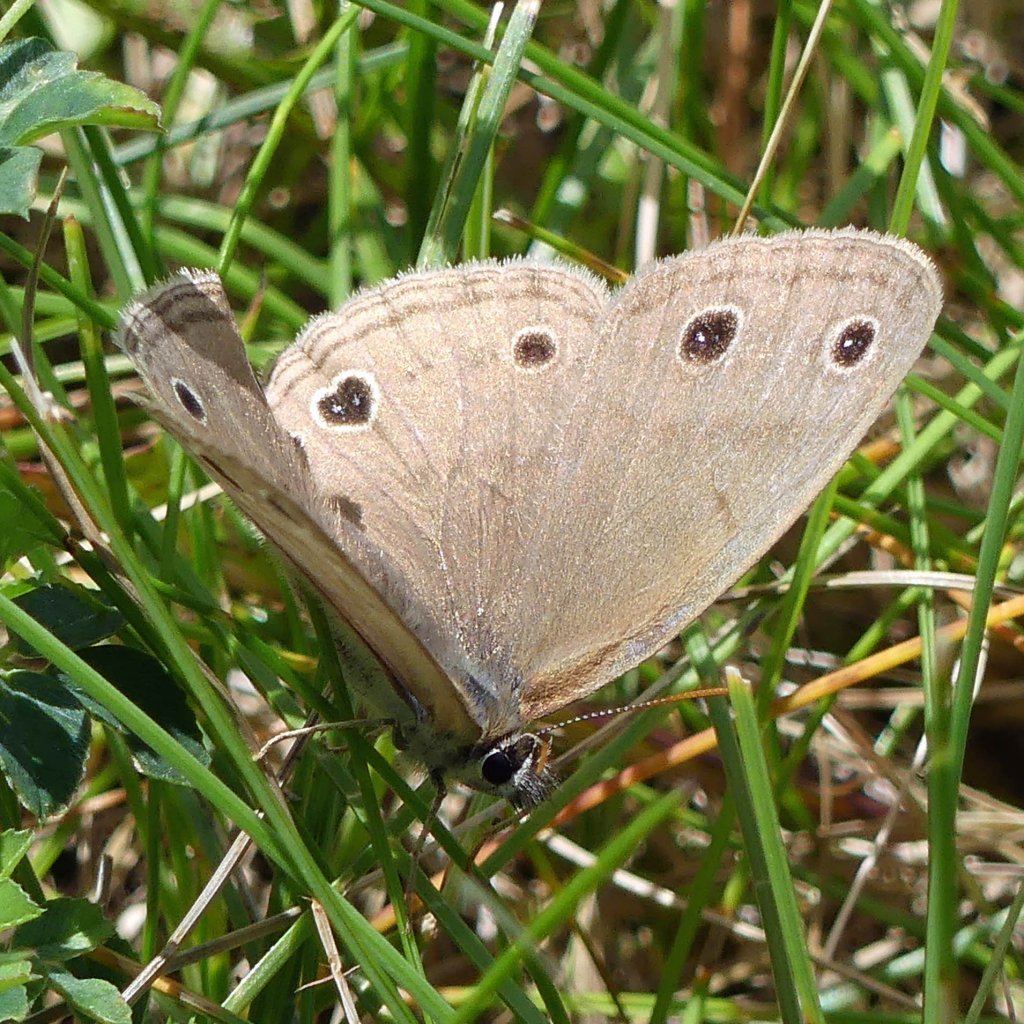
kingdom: Animalia
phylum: Arthropoda
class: Insecta
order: Lepidoptera
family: Nymphalidae
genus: Euptychia
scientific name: Euptychia cymela
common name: Little Wood Satyr
